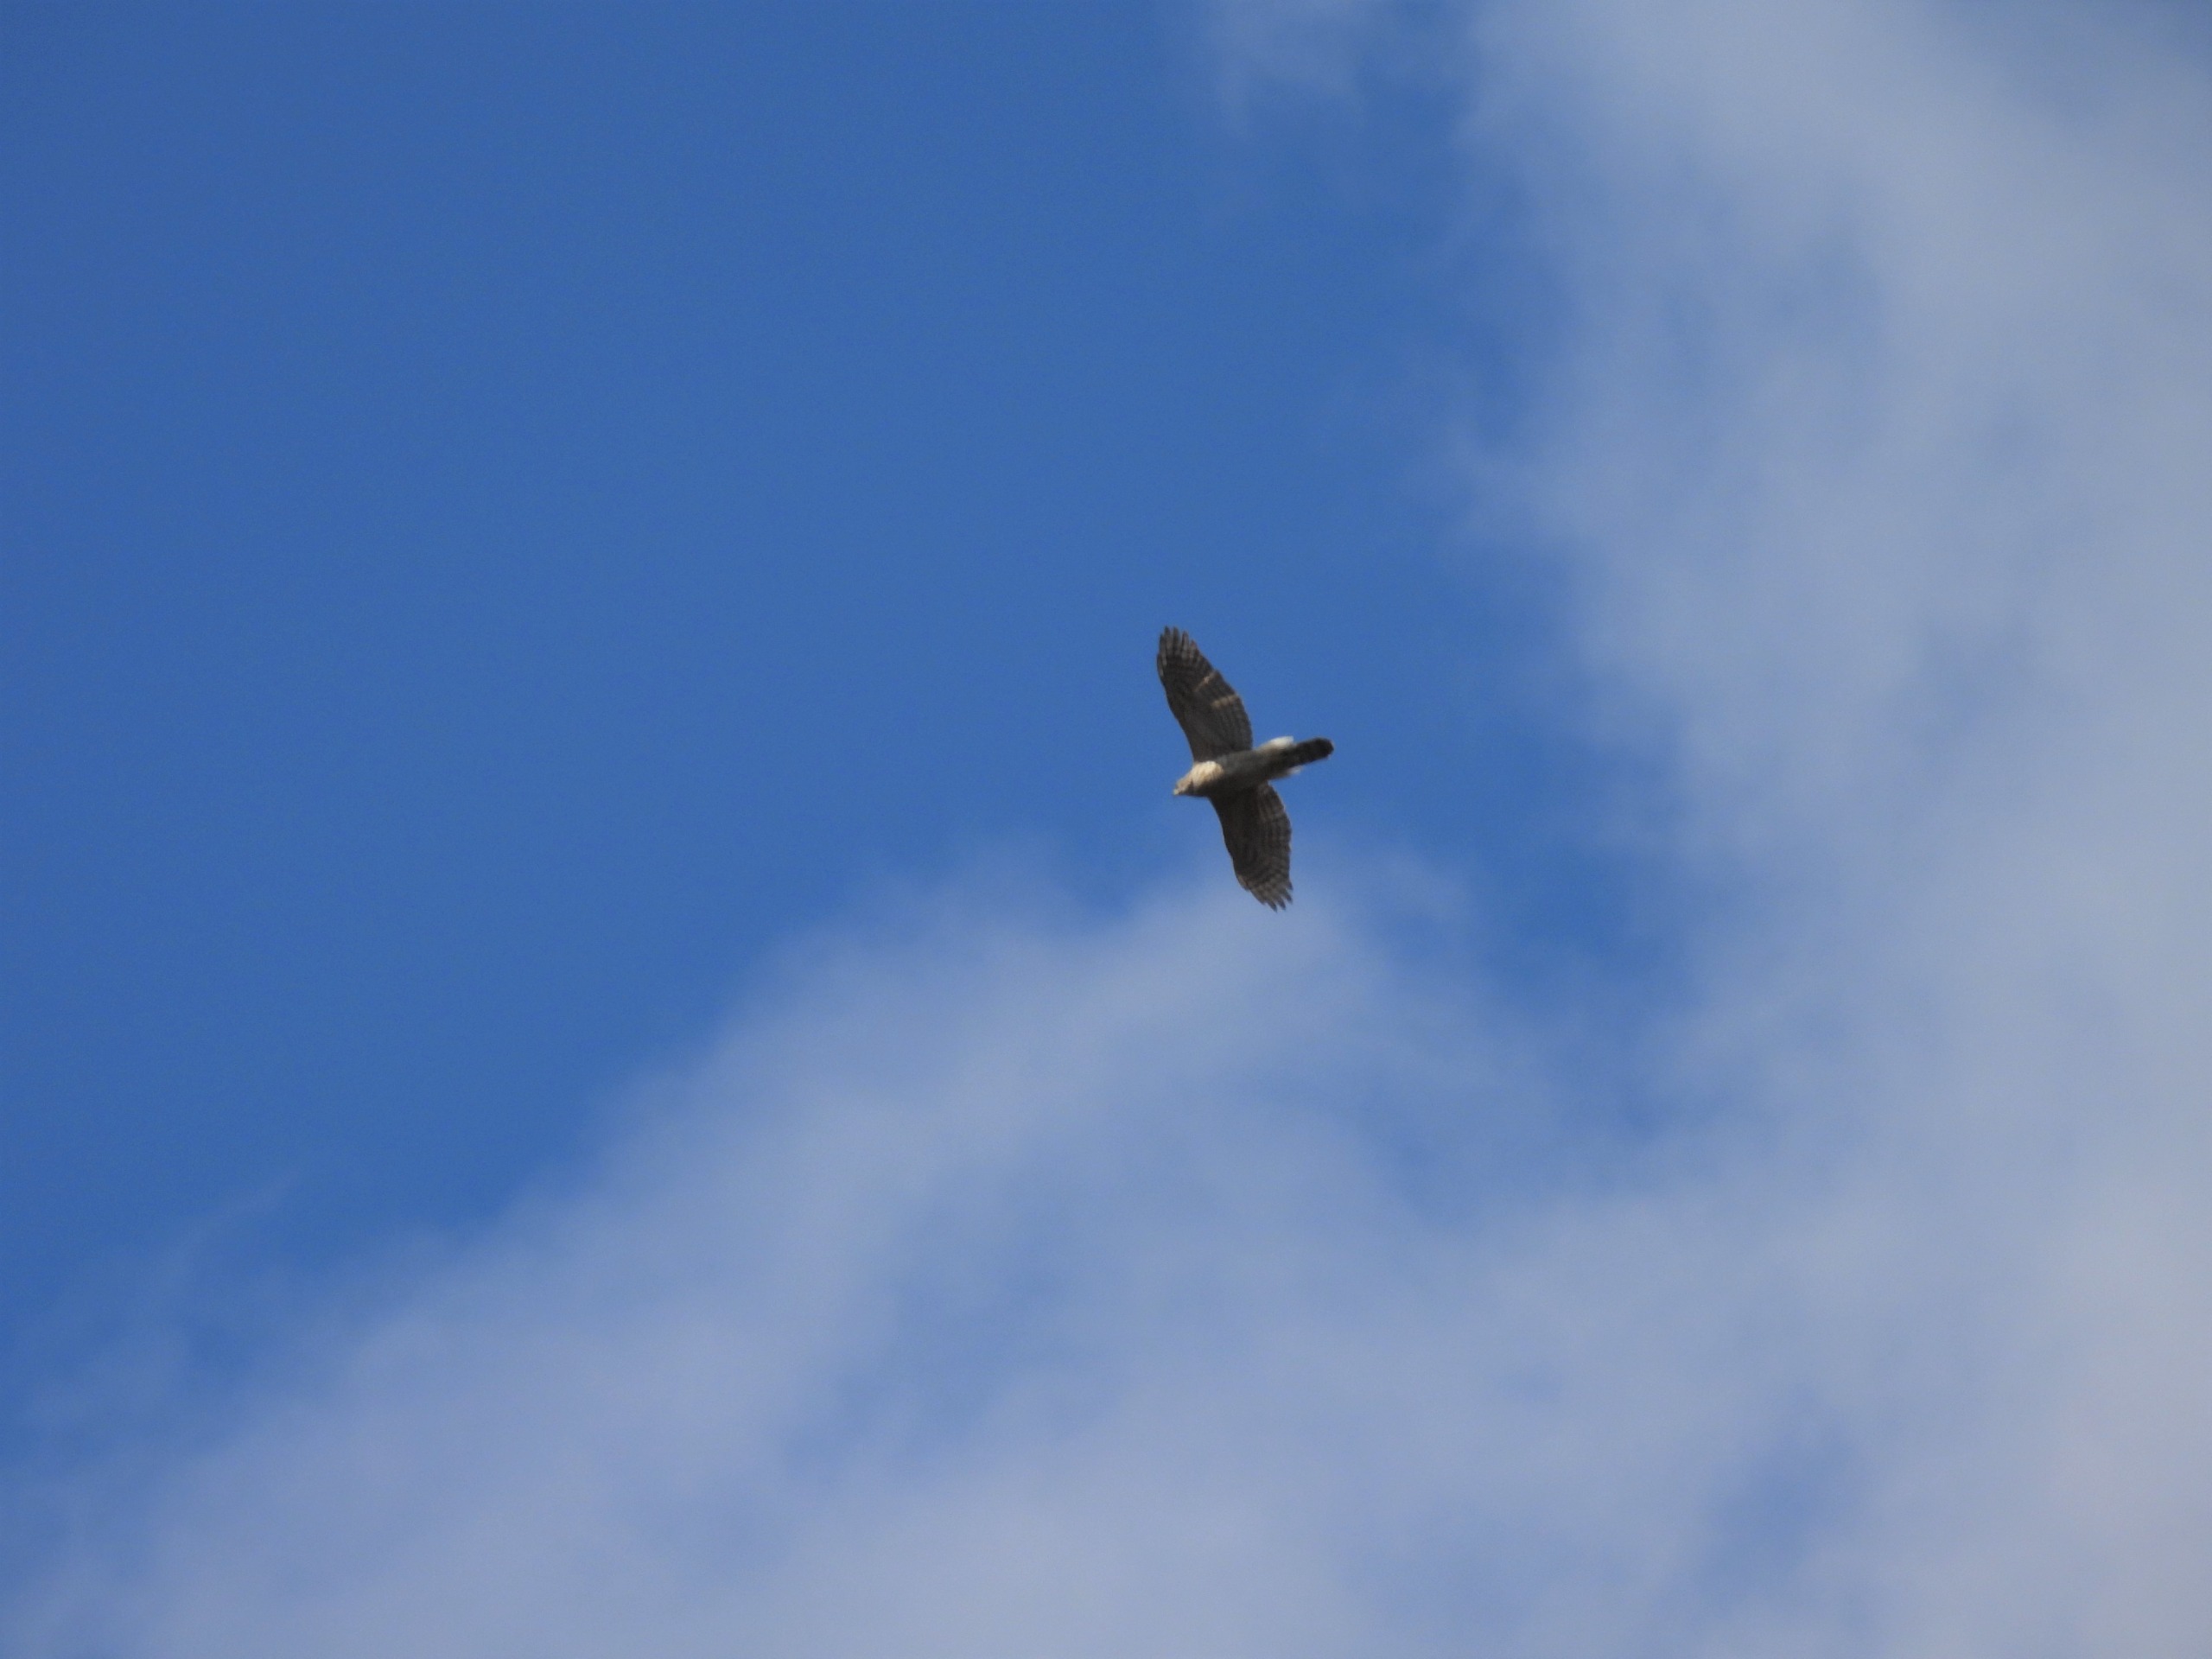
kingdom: Animalia
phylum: Chordata
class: Aves
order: Accipitriformes
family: Accipitridae
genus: Accipiter
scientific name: Accipiter gentilis
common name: Duehøg
